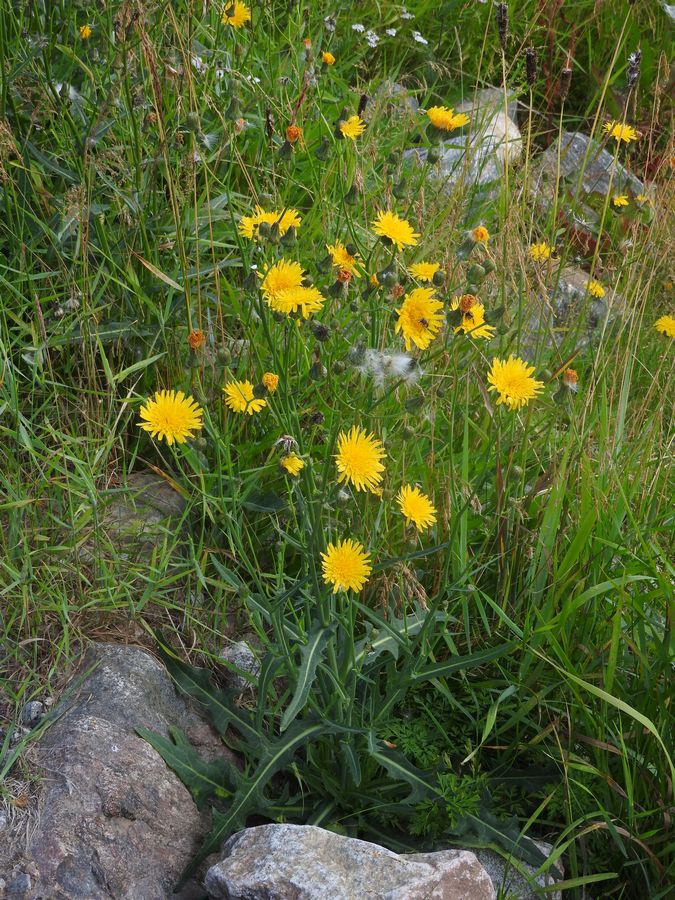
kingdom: Plantae
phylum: Tracheophyta
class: Magnoliopsida
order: Asterales
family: Asteraceae
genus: Sonchus
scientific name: Sonchus arvensis
